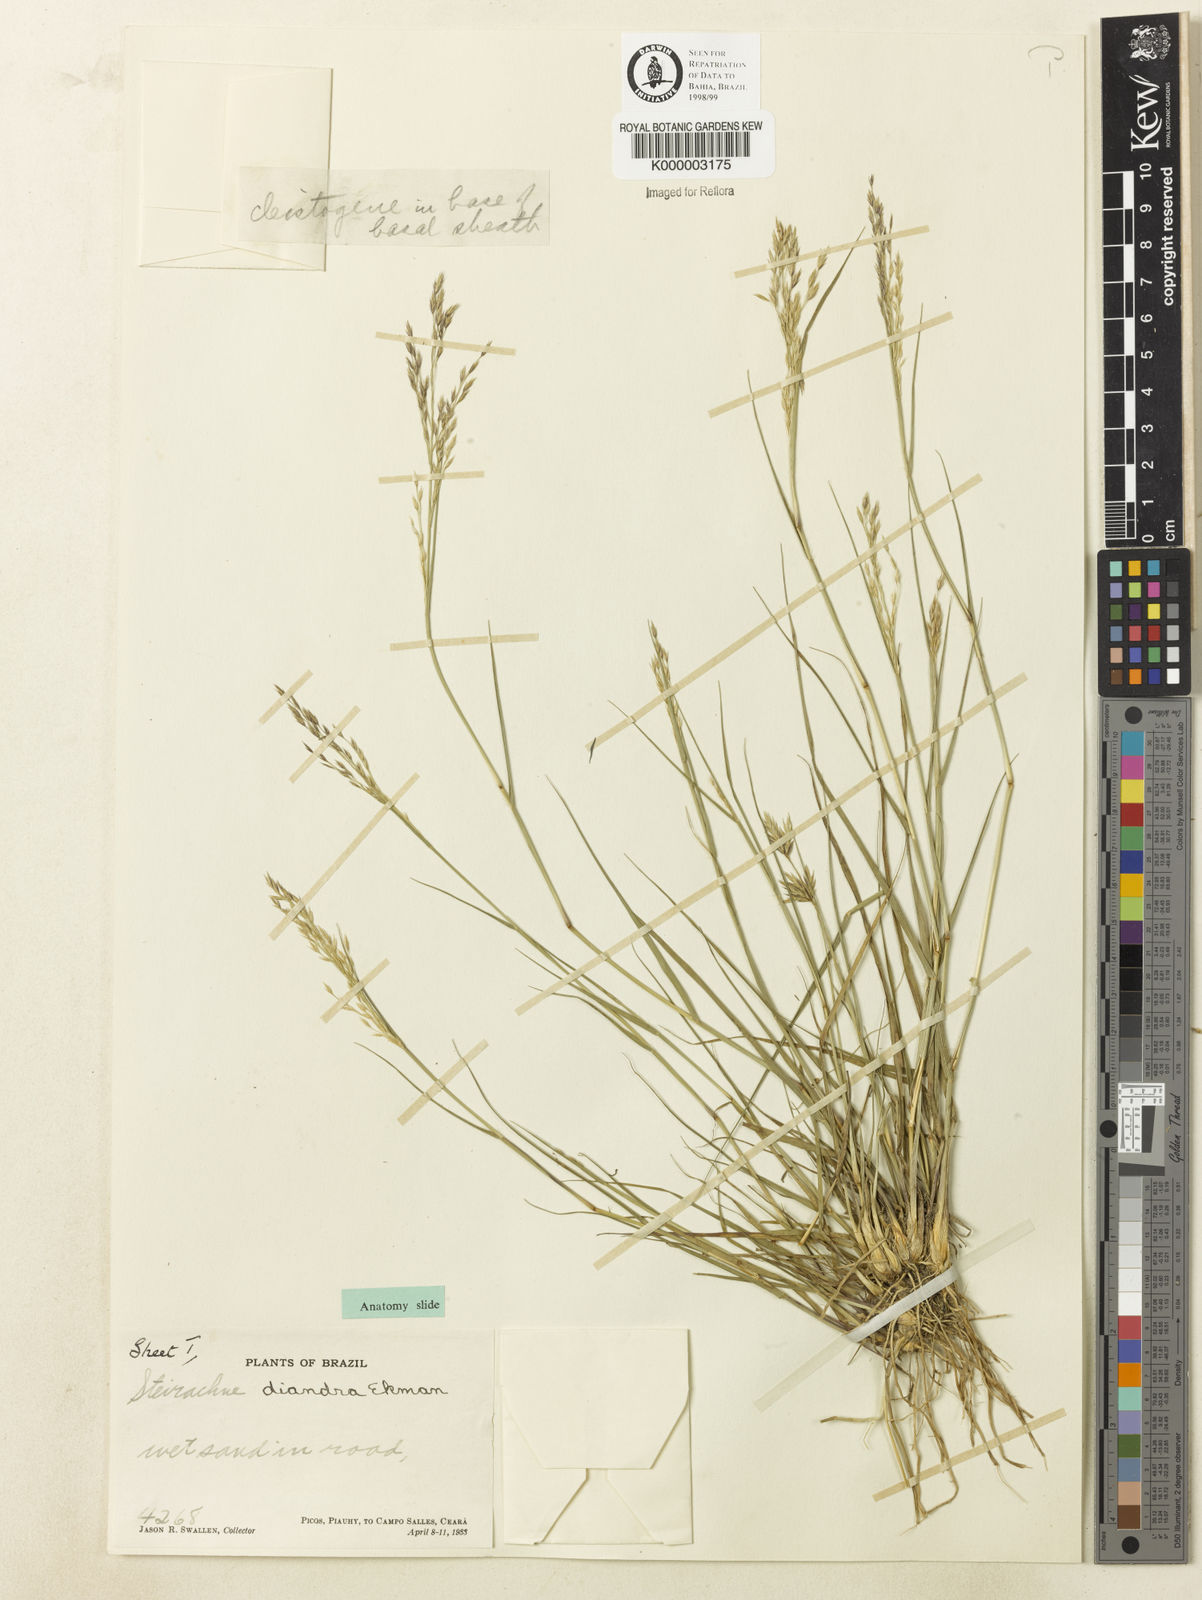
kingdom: Plantae
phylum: Tracheophyta
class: Liliopsida
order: Poales
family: Poaceae
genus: Steirachne
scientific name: Steirachne diandra
